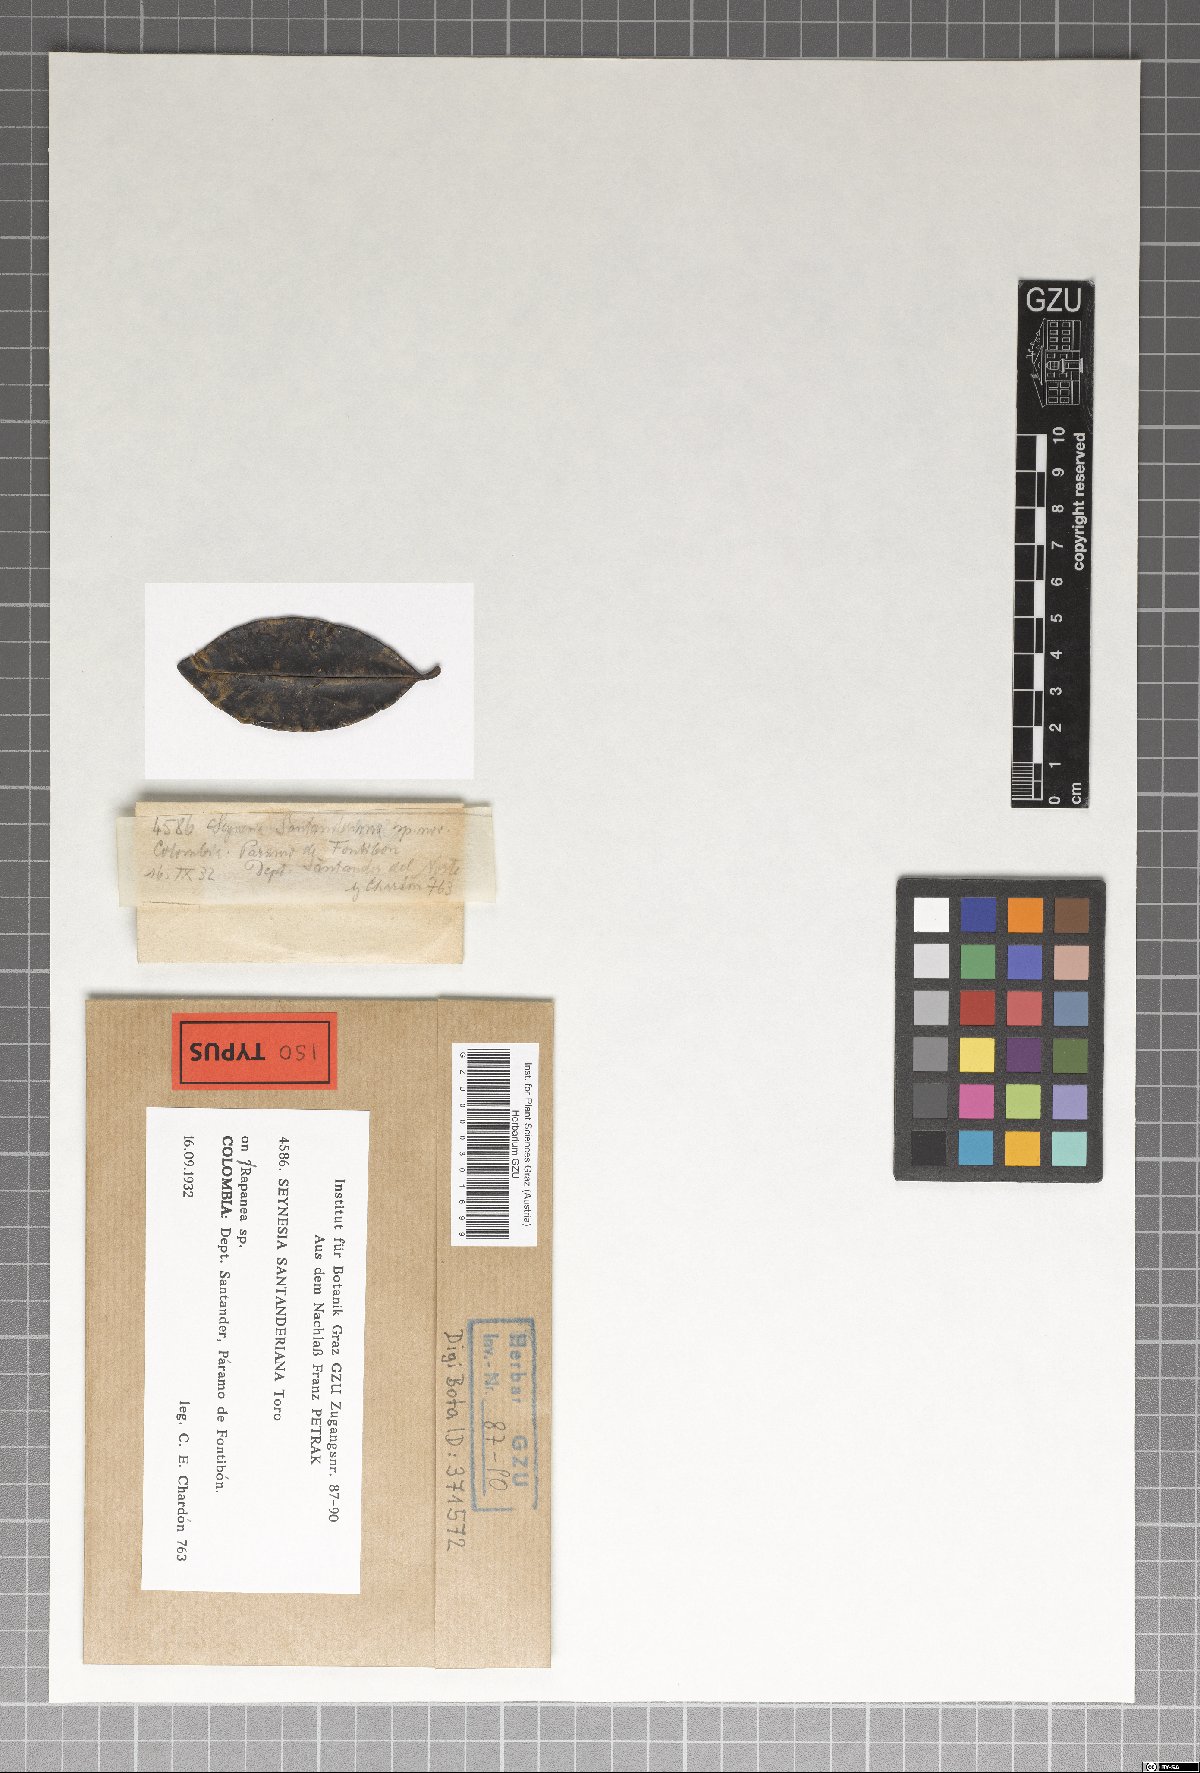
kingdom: Fungi
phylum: Ascomycota
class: Sordariomycetes
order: Xylariales
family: Cainiaceae
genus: Seynesia
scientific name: Seynesia santanderiana
